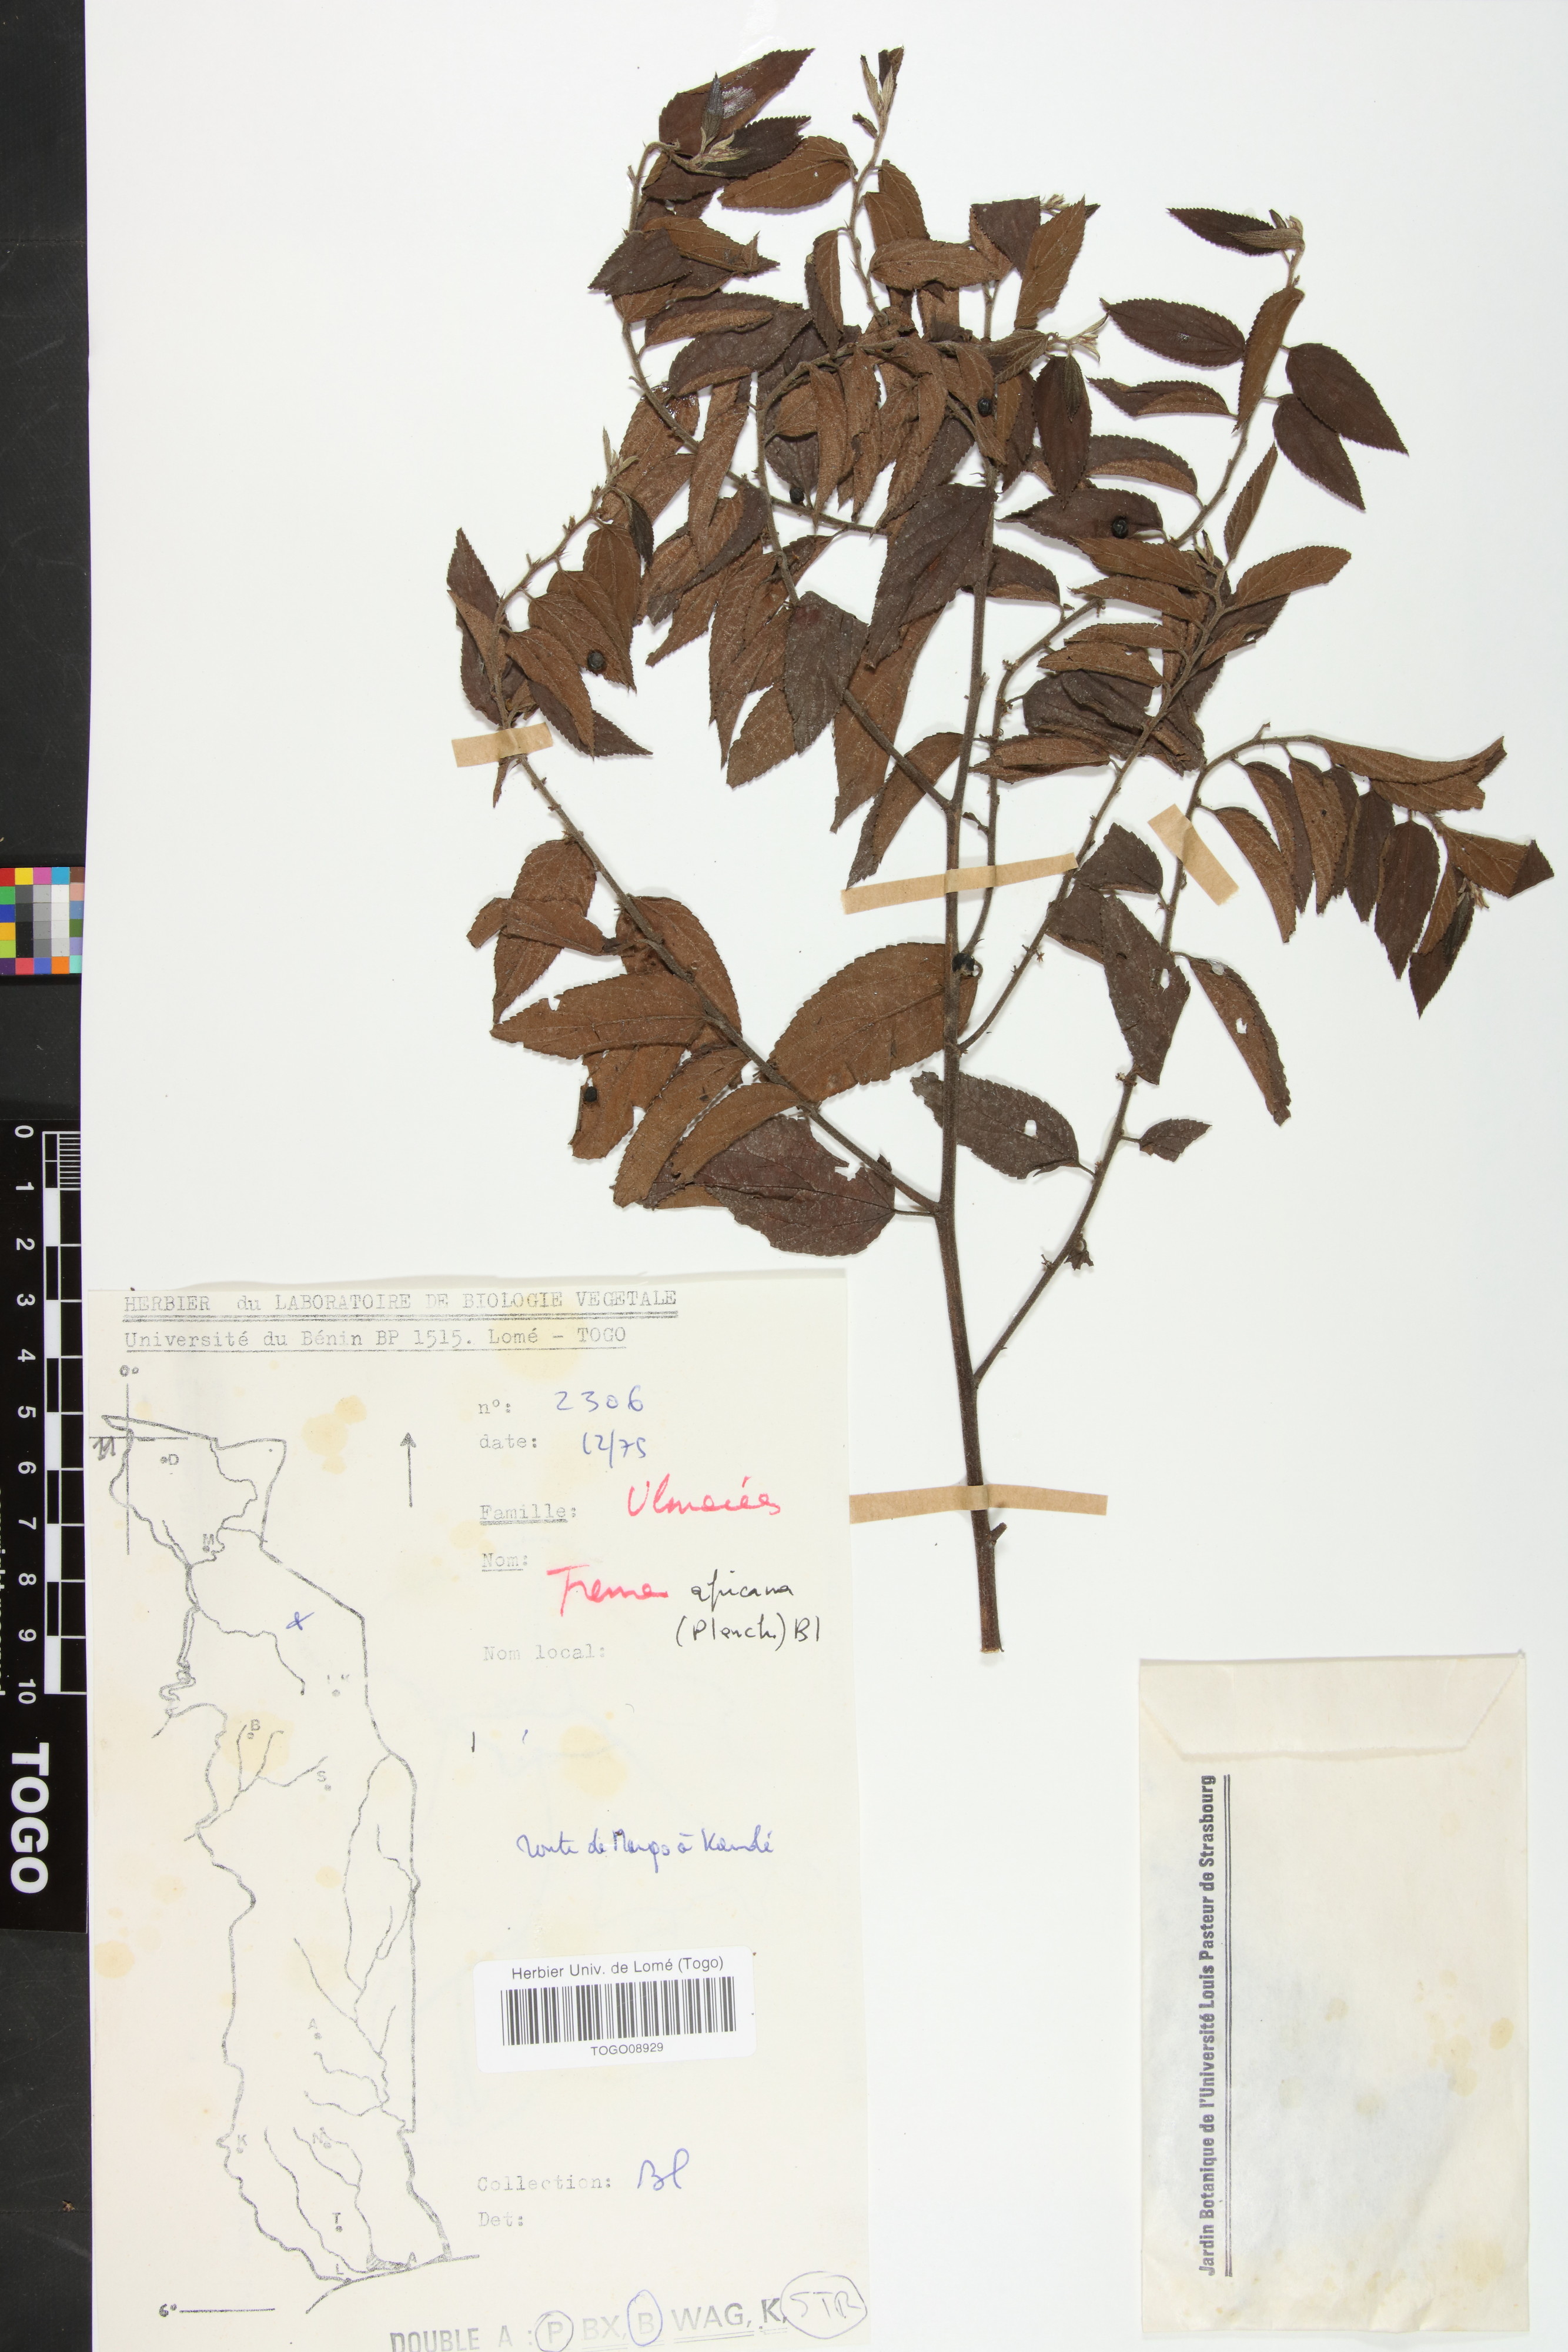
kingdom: Plantae
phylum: Tracheophyta
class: Magnoliopsida
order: Rosales
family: Cannabaceae
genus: Trema
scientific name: Trema orientale
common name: Indian charcoal tree
